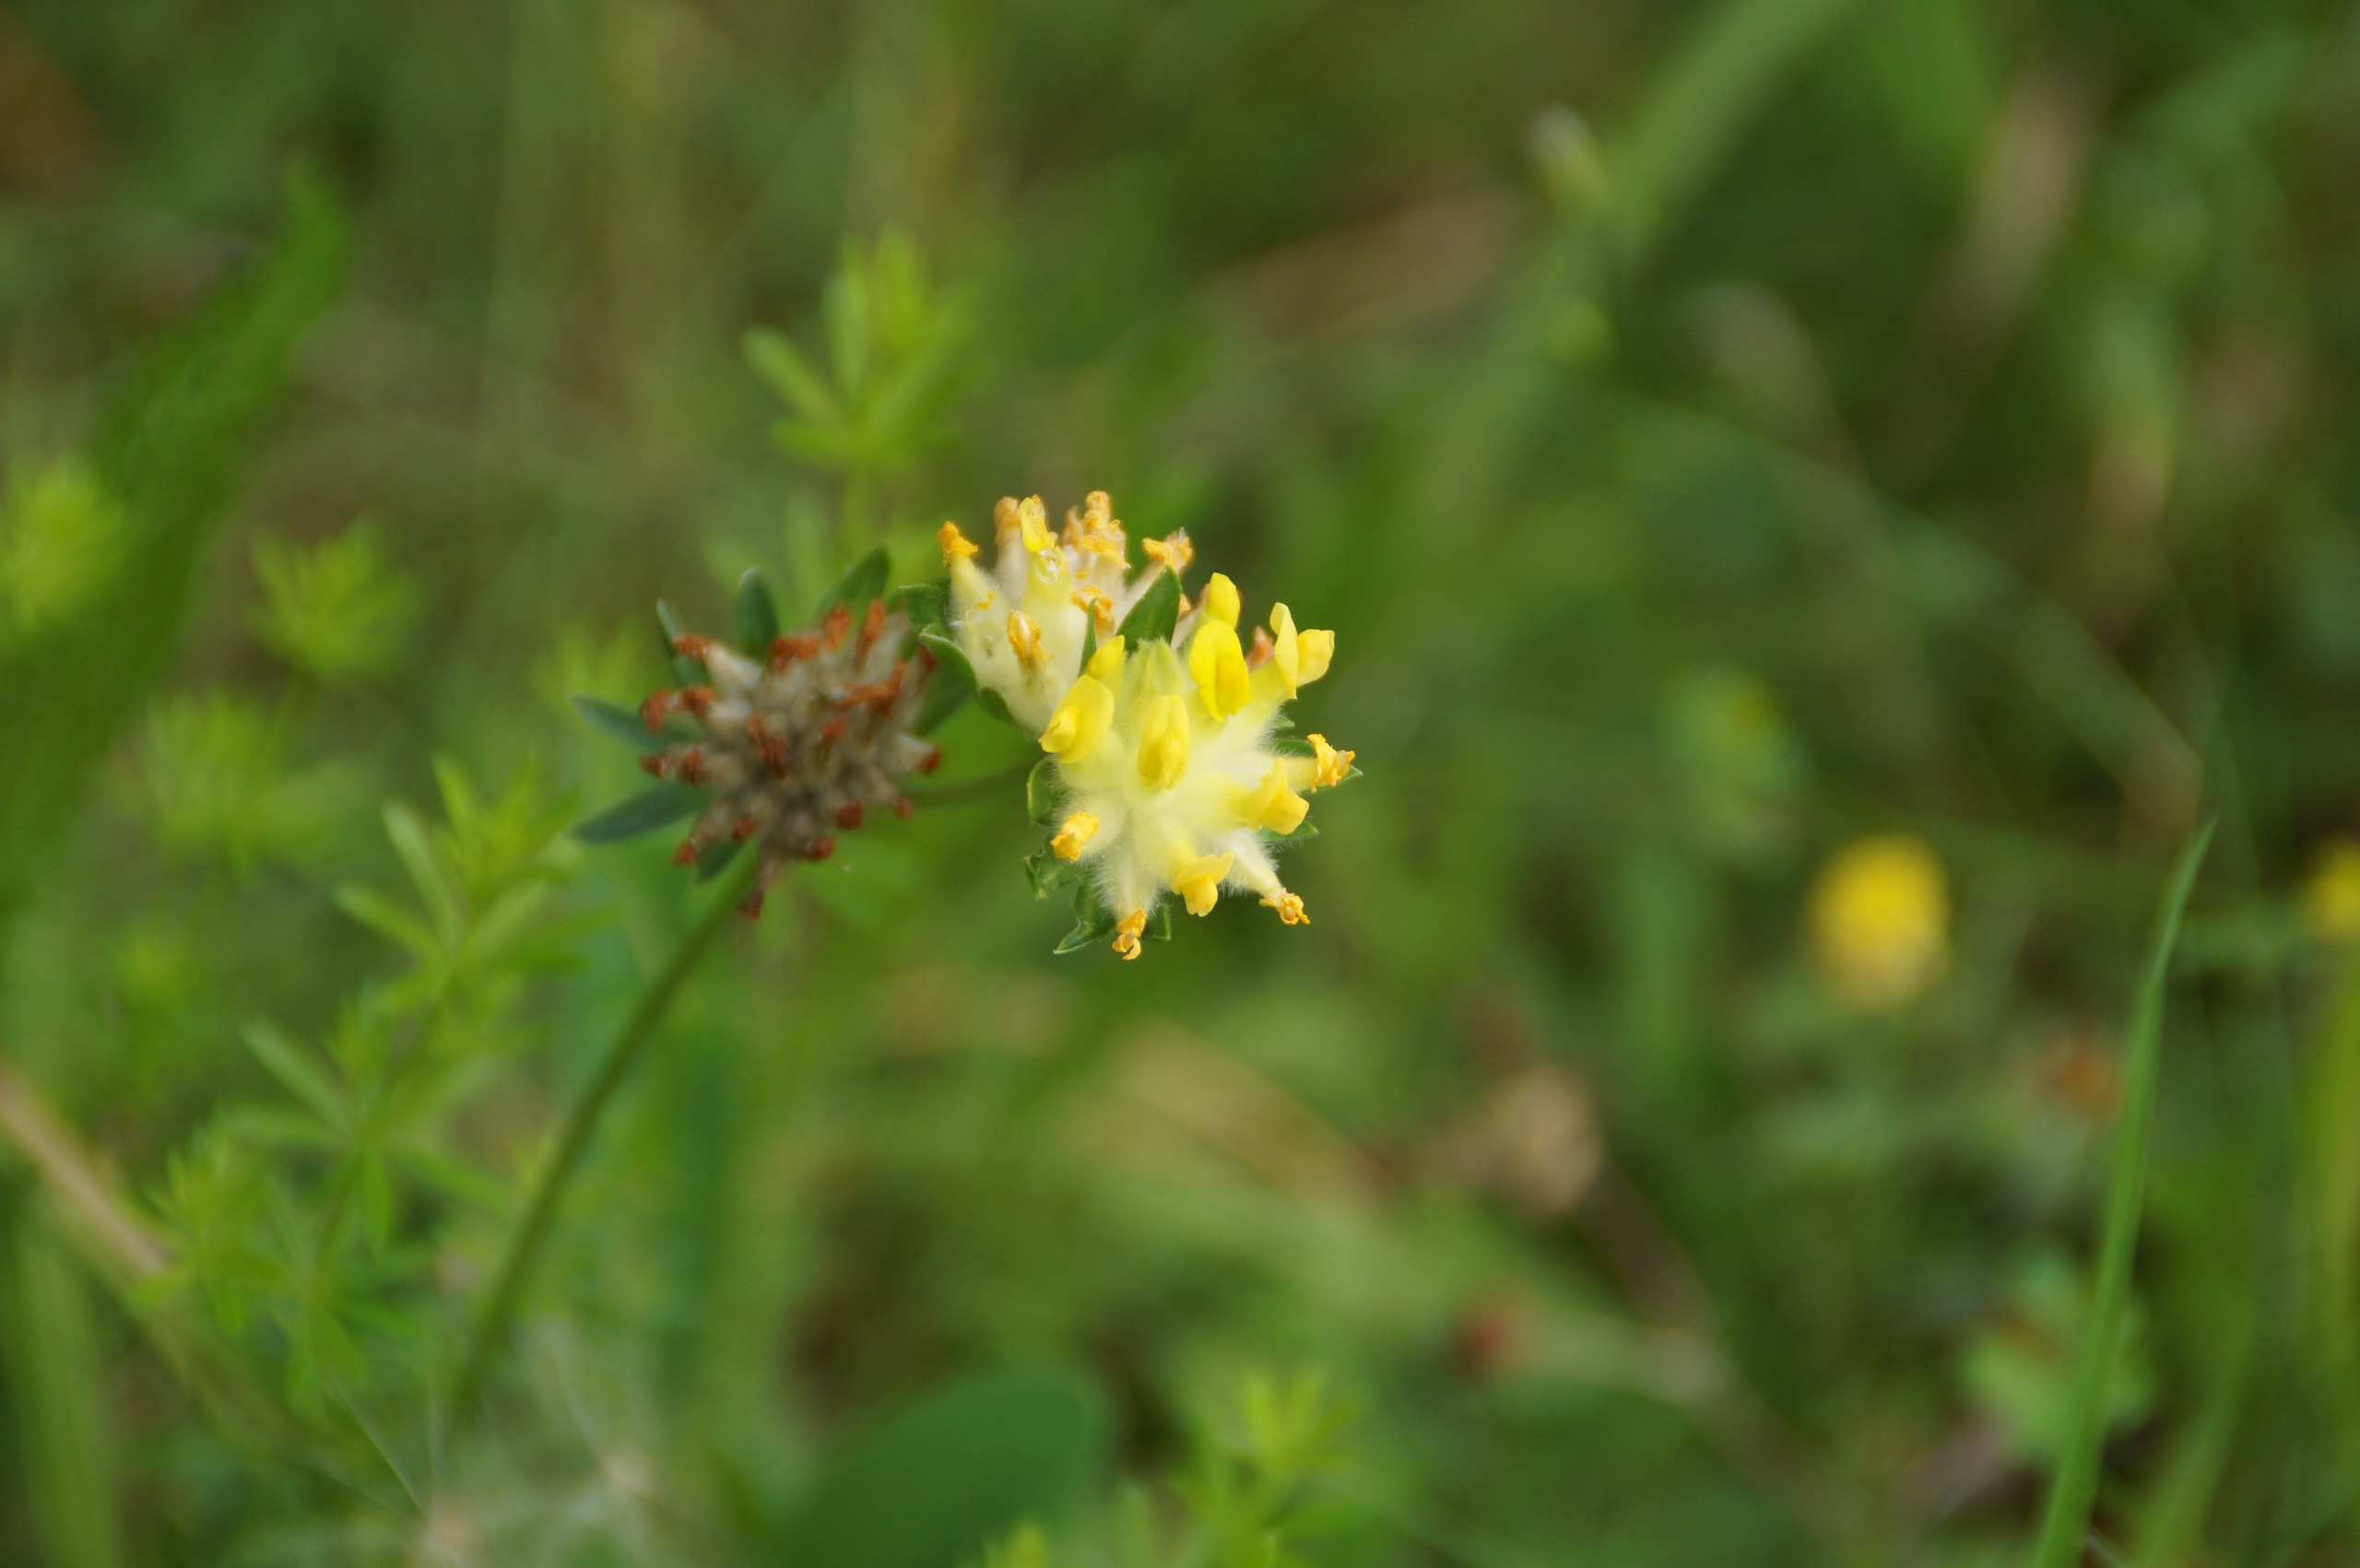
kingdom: Plantae
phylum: Tracheophyta
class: Magnoliopsida
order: Fabales
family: Fabaceae
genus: Anthyllis
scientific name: Anthyllis vulneraria
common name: Rundbælg
